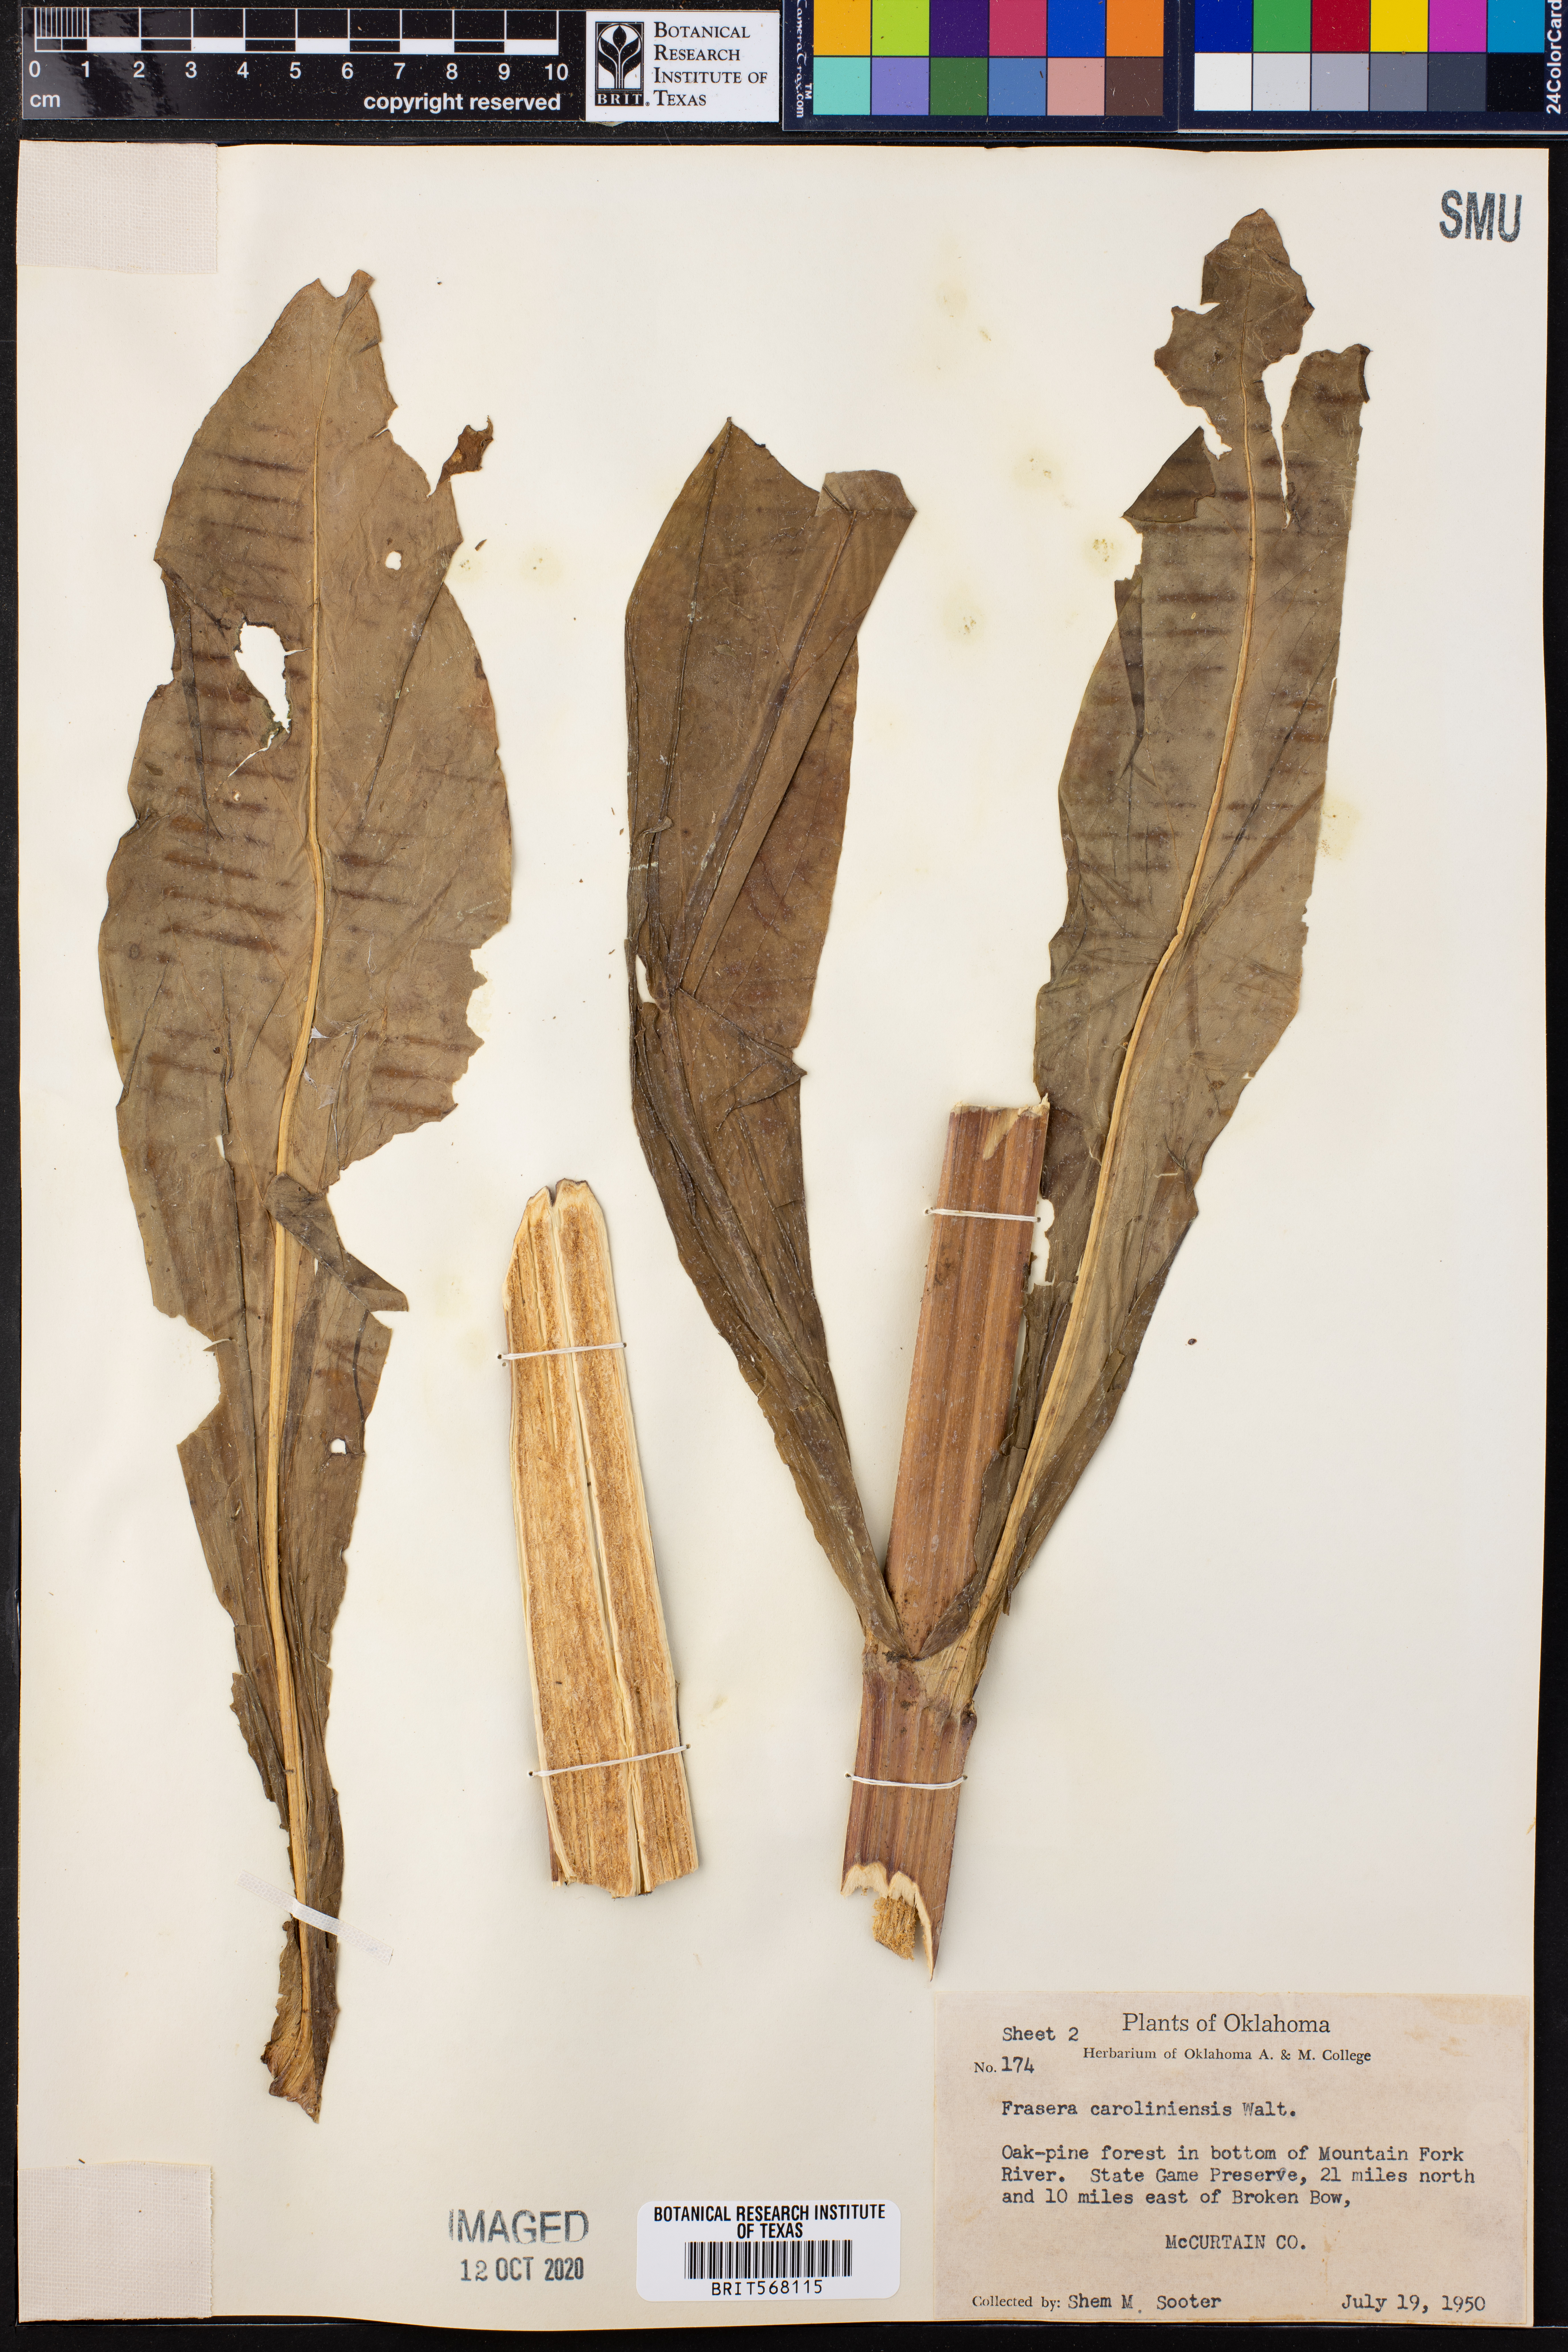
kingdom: Plantae
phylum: Tracheophyta
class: Magnoliopsida
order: Gentianales
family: Gentianaceae
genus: Frasera
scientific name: Frasera caroliniensis
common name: American columbo
